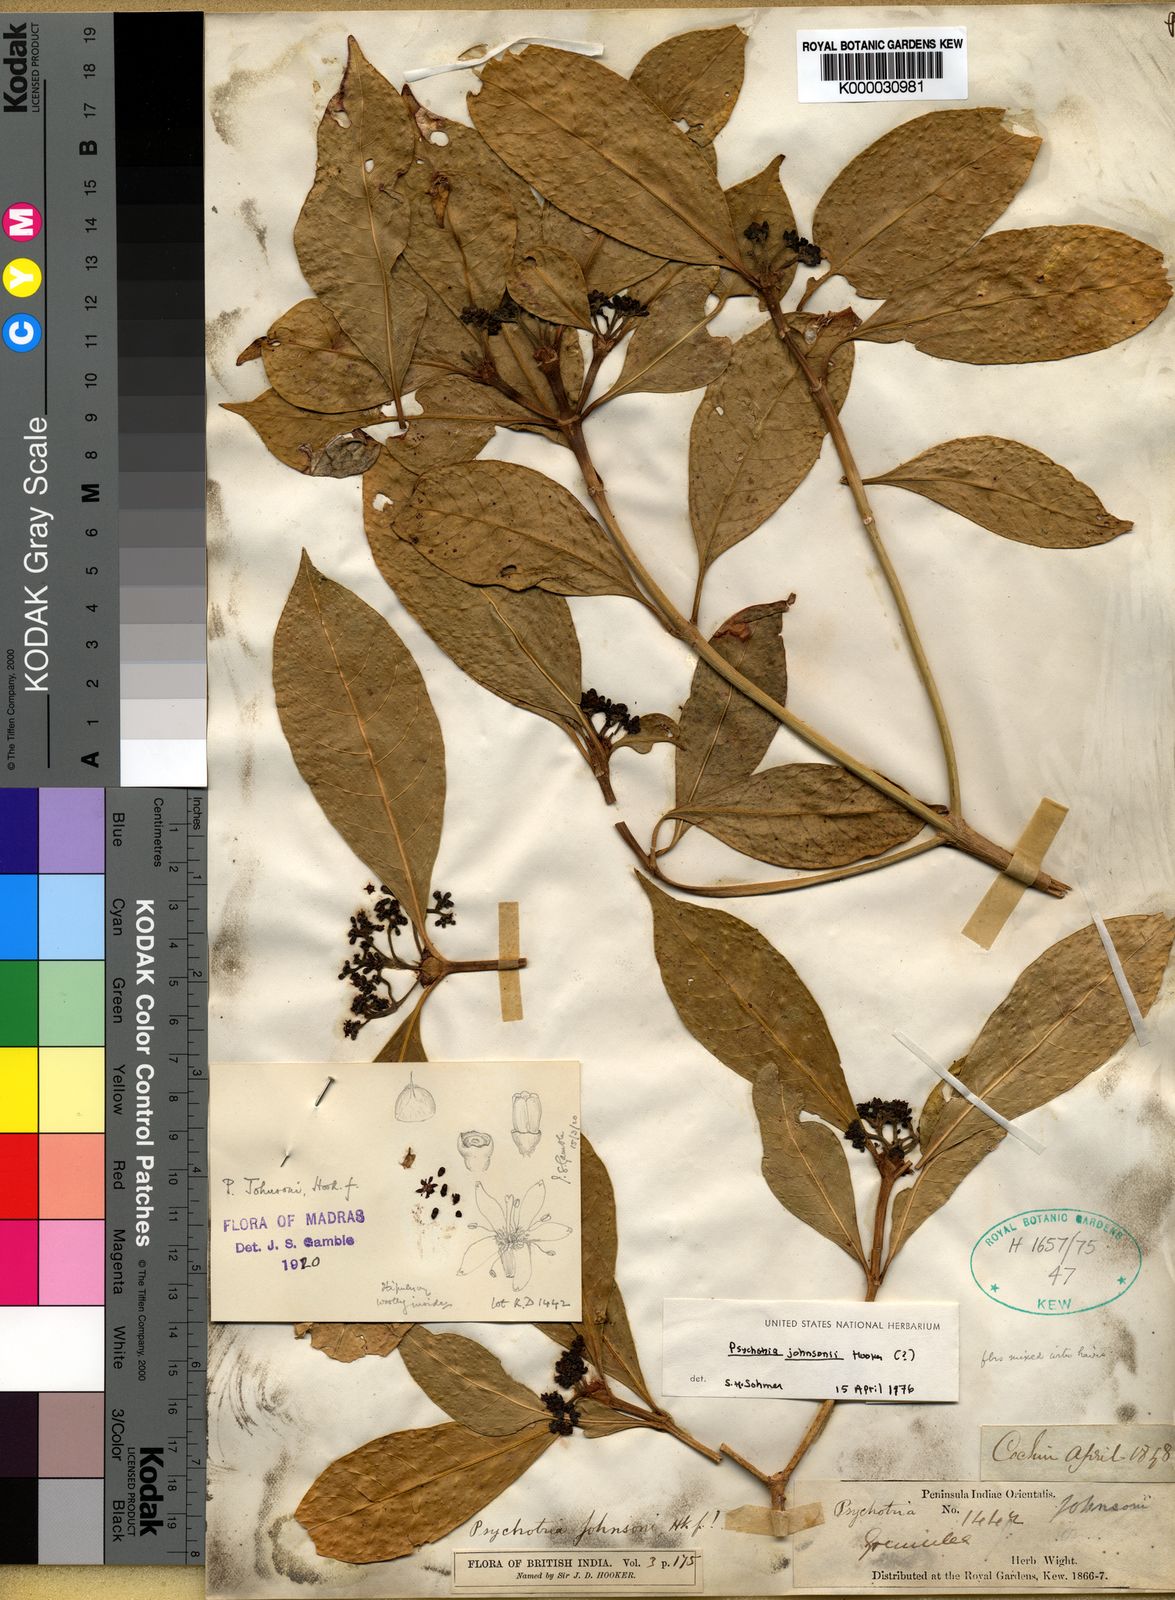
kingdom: Plantae
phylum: Tracheophyta
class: Magnoliopsida
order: Gentianales
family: Rubiaceae
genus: Psychotria
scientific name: Psychotria johnsonii
